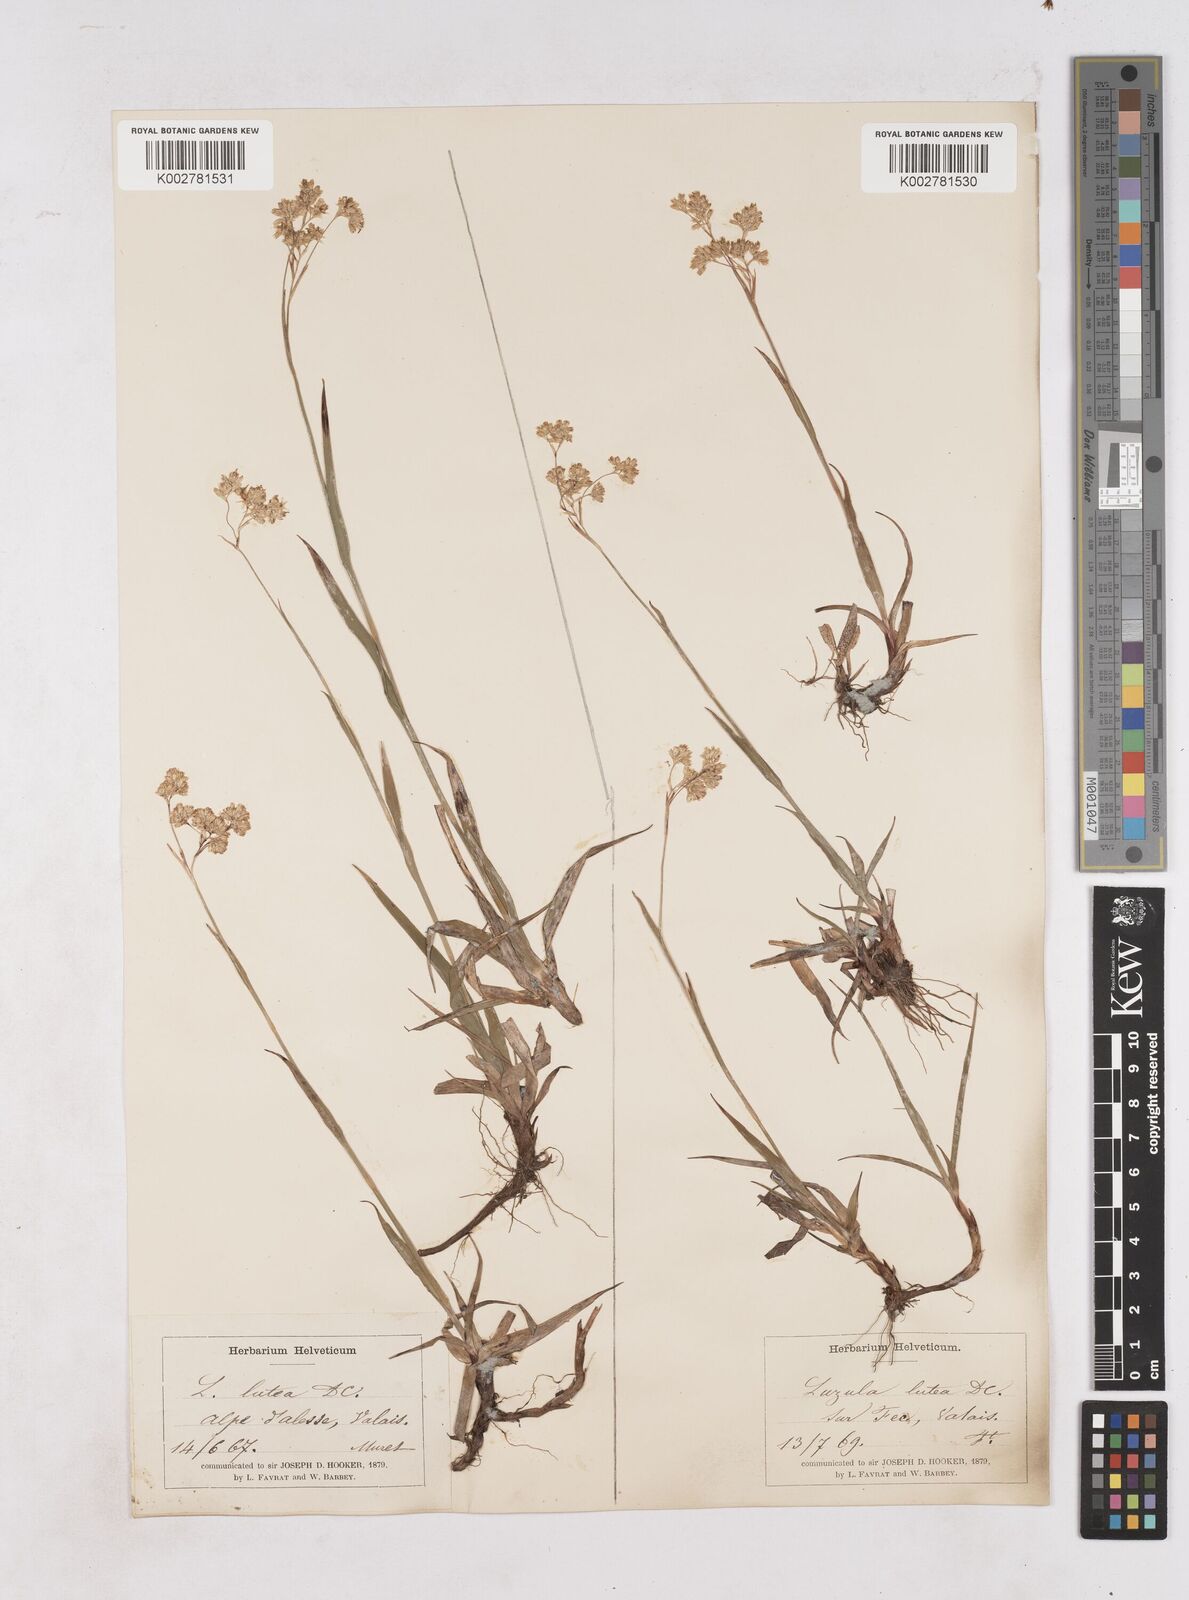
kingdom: Plantae
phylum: Tracheophyta
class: Liliopsida
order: Poales
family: Juncaceae
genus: Luzula
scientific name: Luzula lutea
